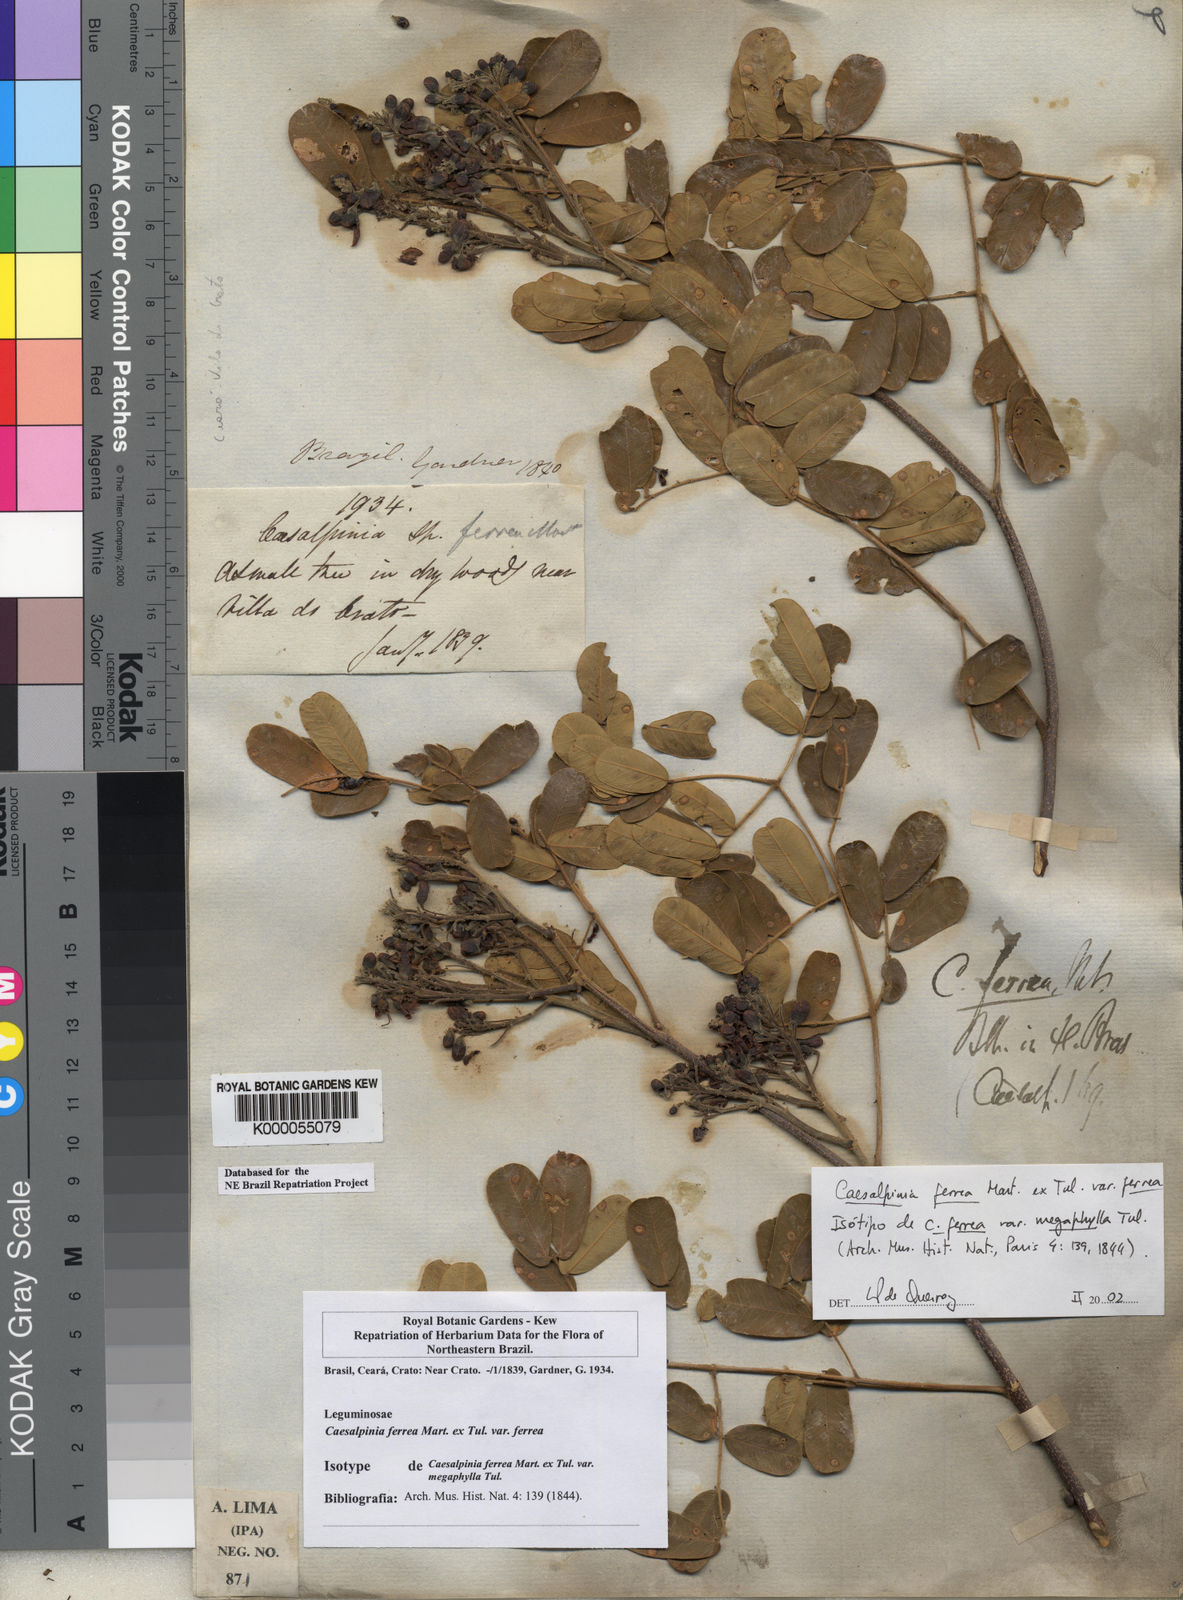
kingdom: Plantae
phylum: Tracheophyta
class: Magnoliopsida
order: Fabales
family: Fabaceae
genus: Libidibia
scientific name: Libidibia ferrea
